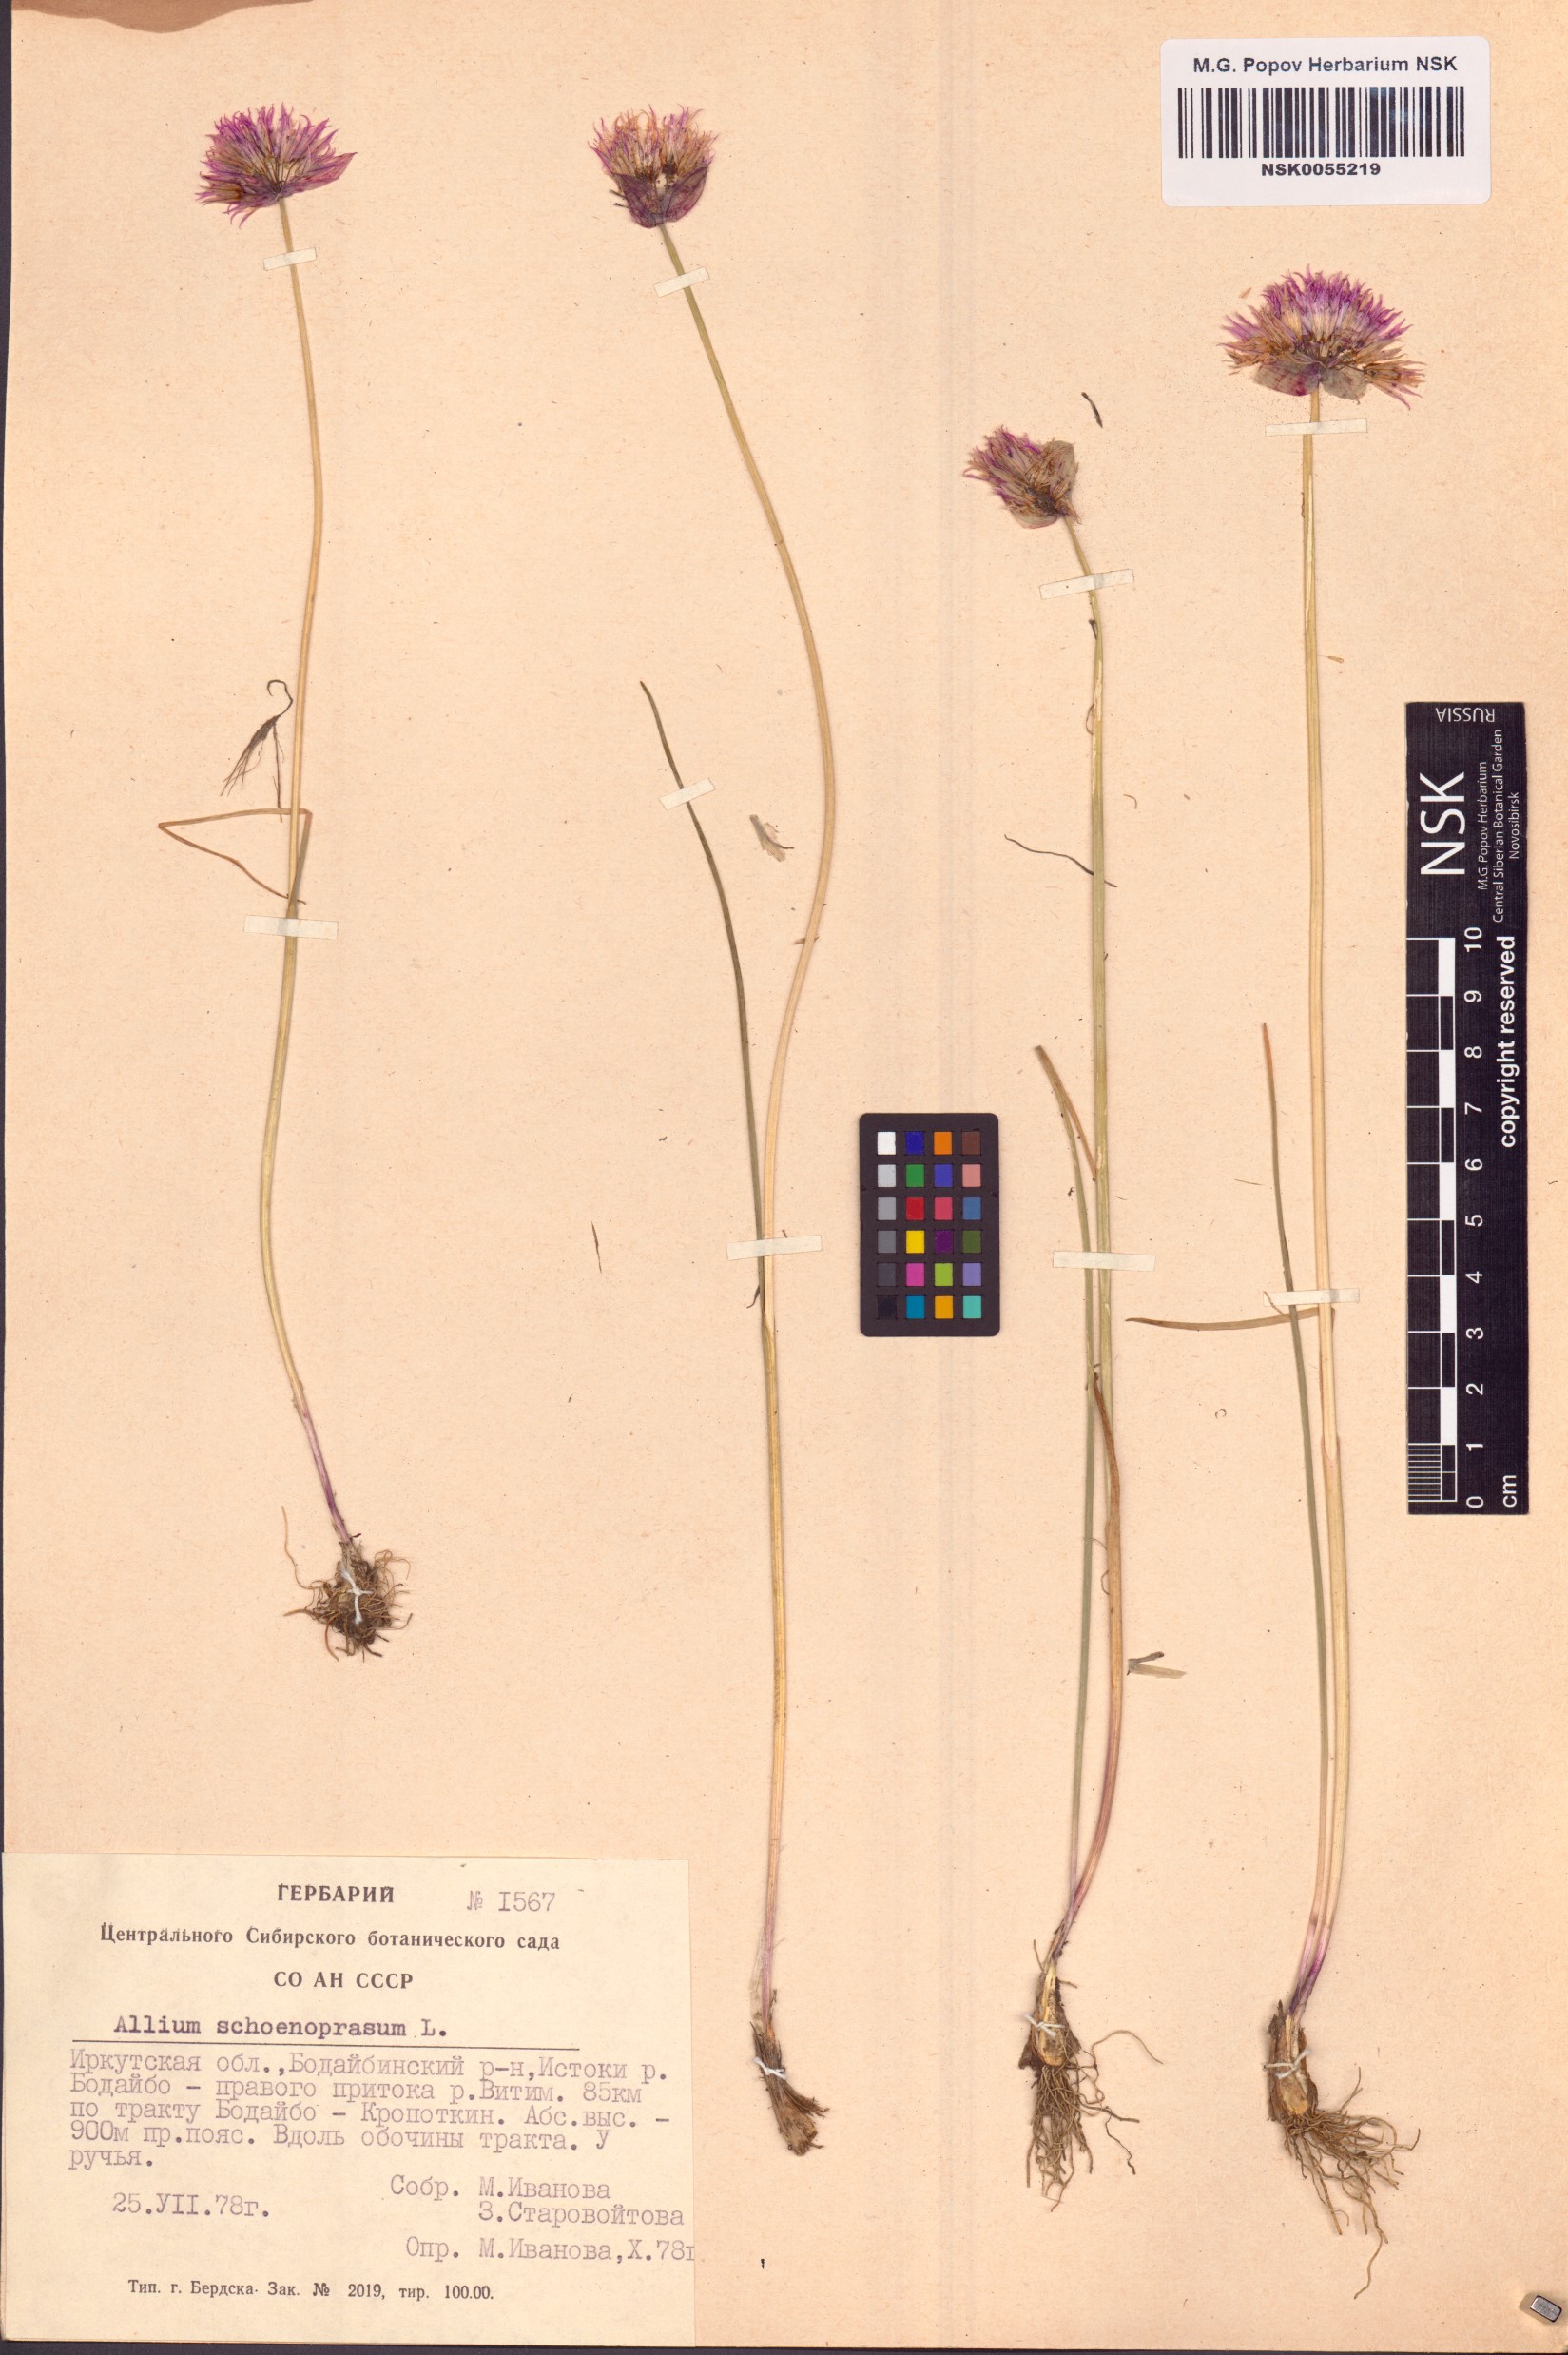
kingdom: Plantae
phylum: Tracheophyta
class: Liliopsida
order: Asparagales
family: Amaryllidaceae
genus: Allium
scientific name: Allium schoenoprasum
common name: Chives
